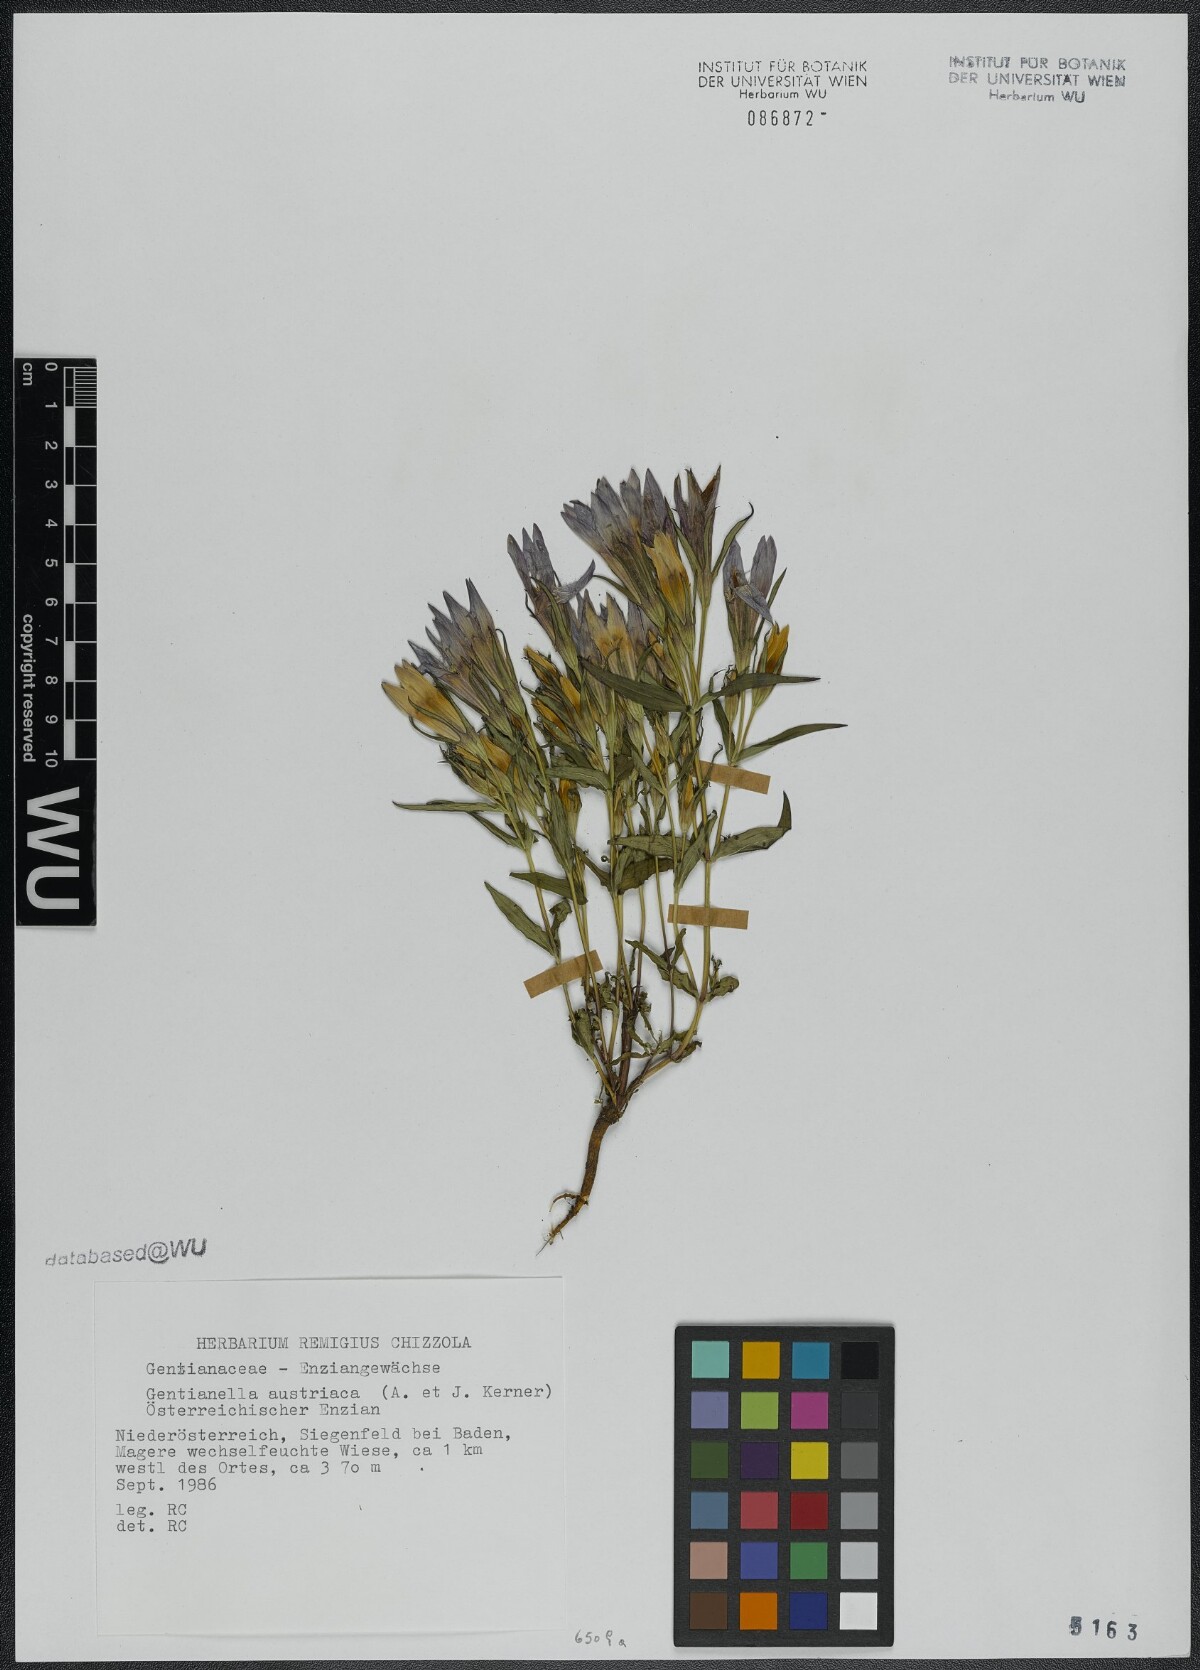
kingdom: Plantae
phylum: Tracheophyta
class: Magnoliopsida
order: Gentianales
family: Gentianaceae
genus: Gentianella
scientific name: Gentianella austriaca
